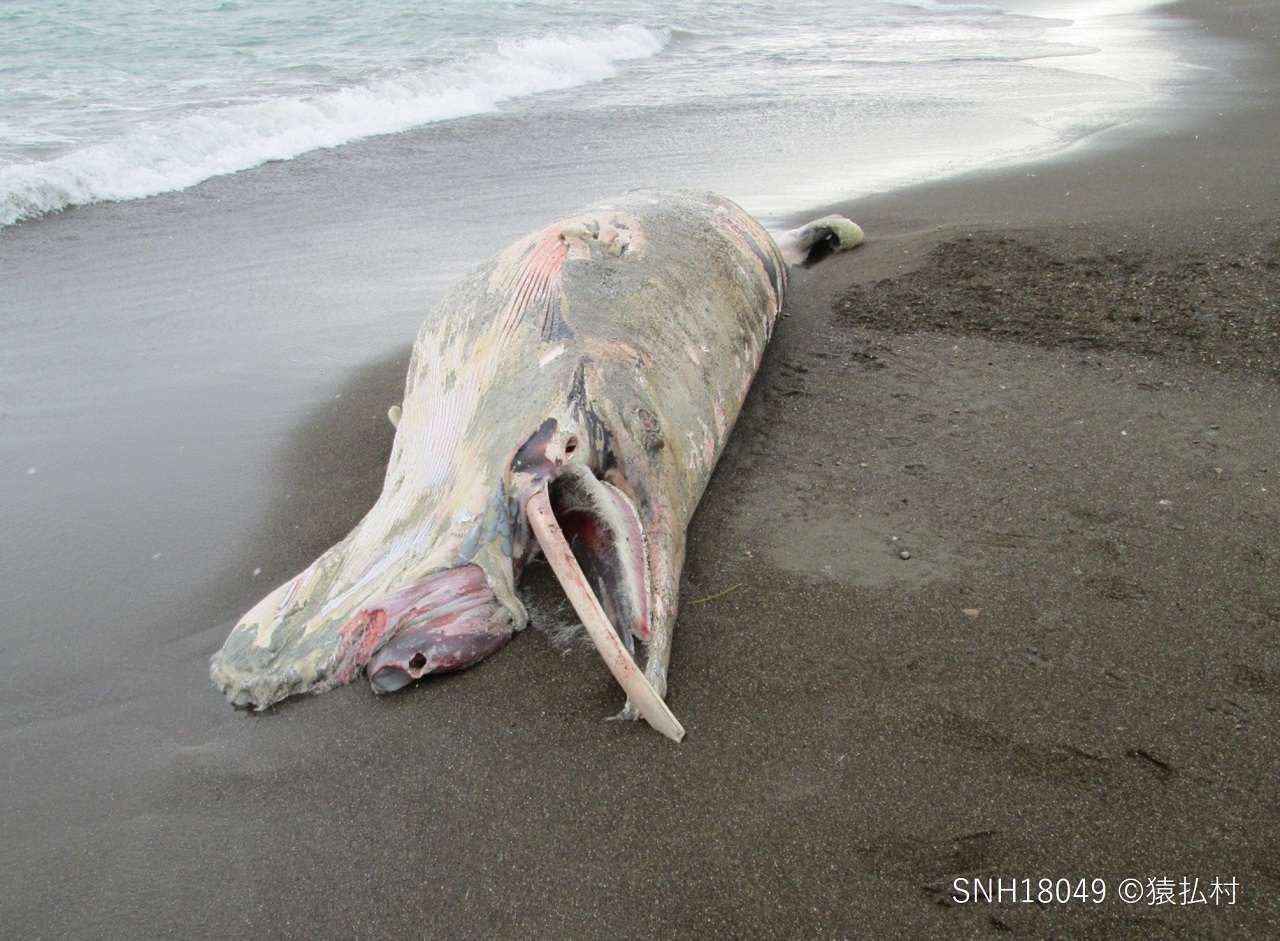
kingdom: Animalia
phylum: Chordata
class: Mammalia
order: Cetacea
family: Balaenopteridae
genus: Balaenoptera
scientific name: Balaenoptera acutorostrata
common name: Minke whale
